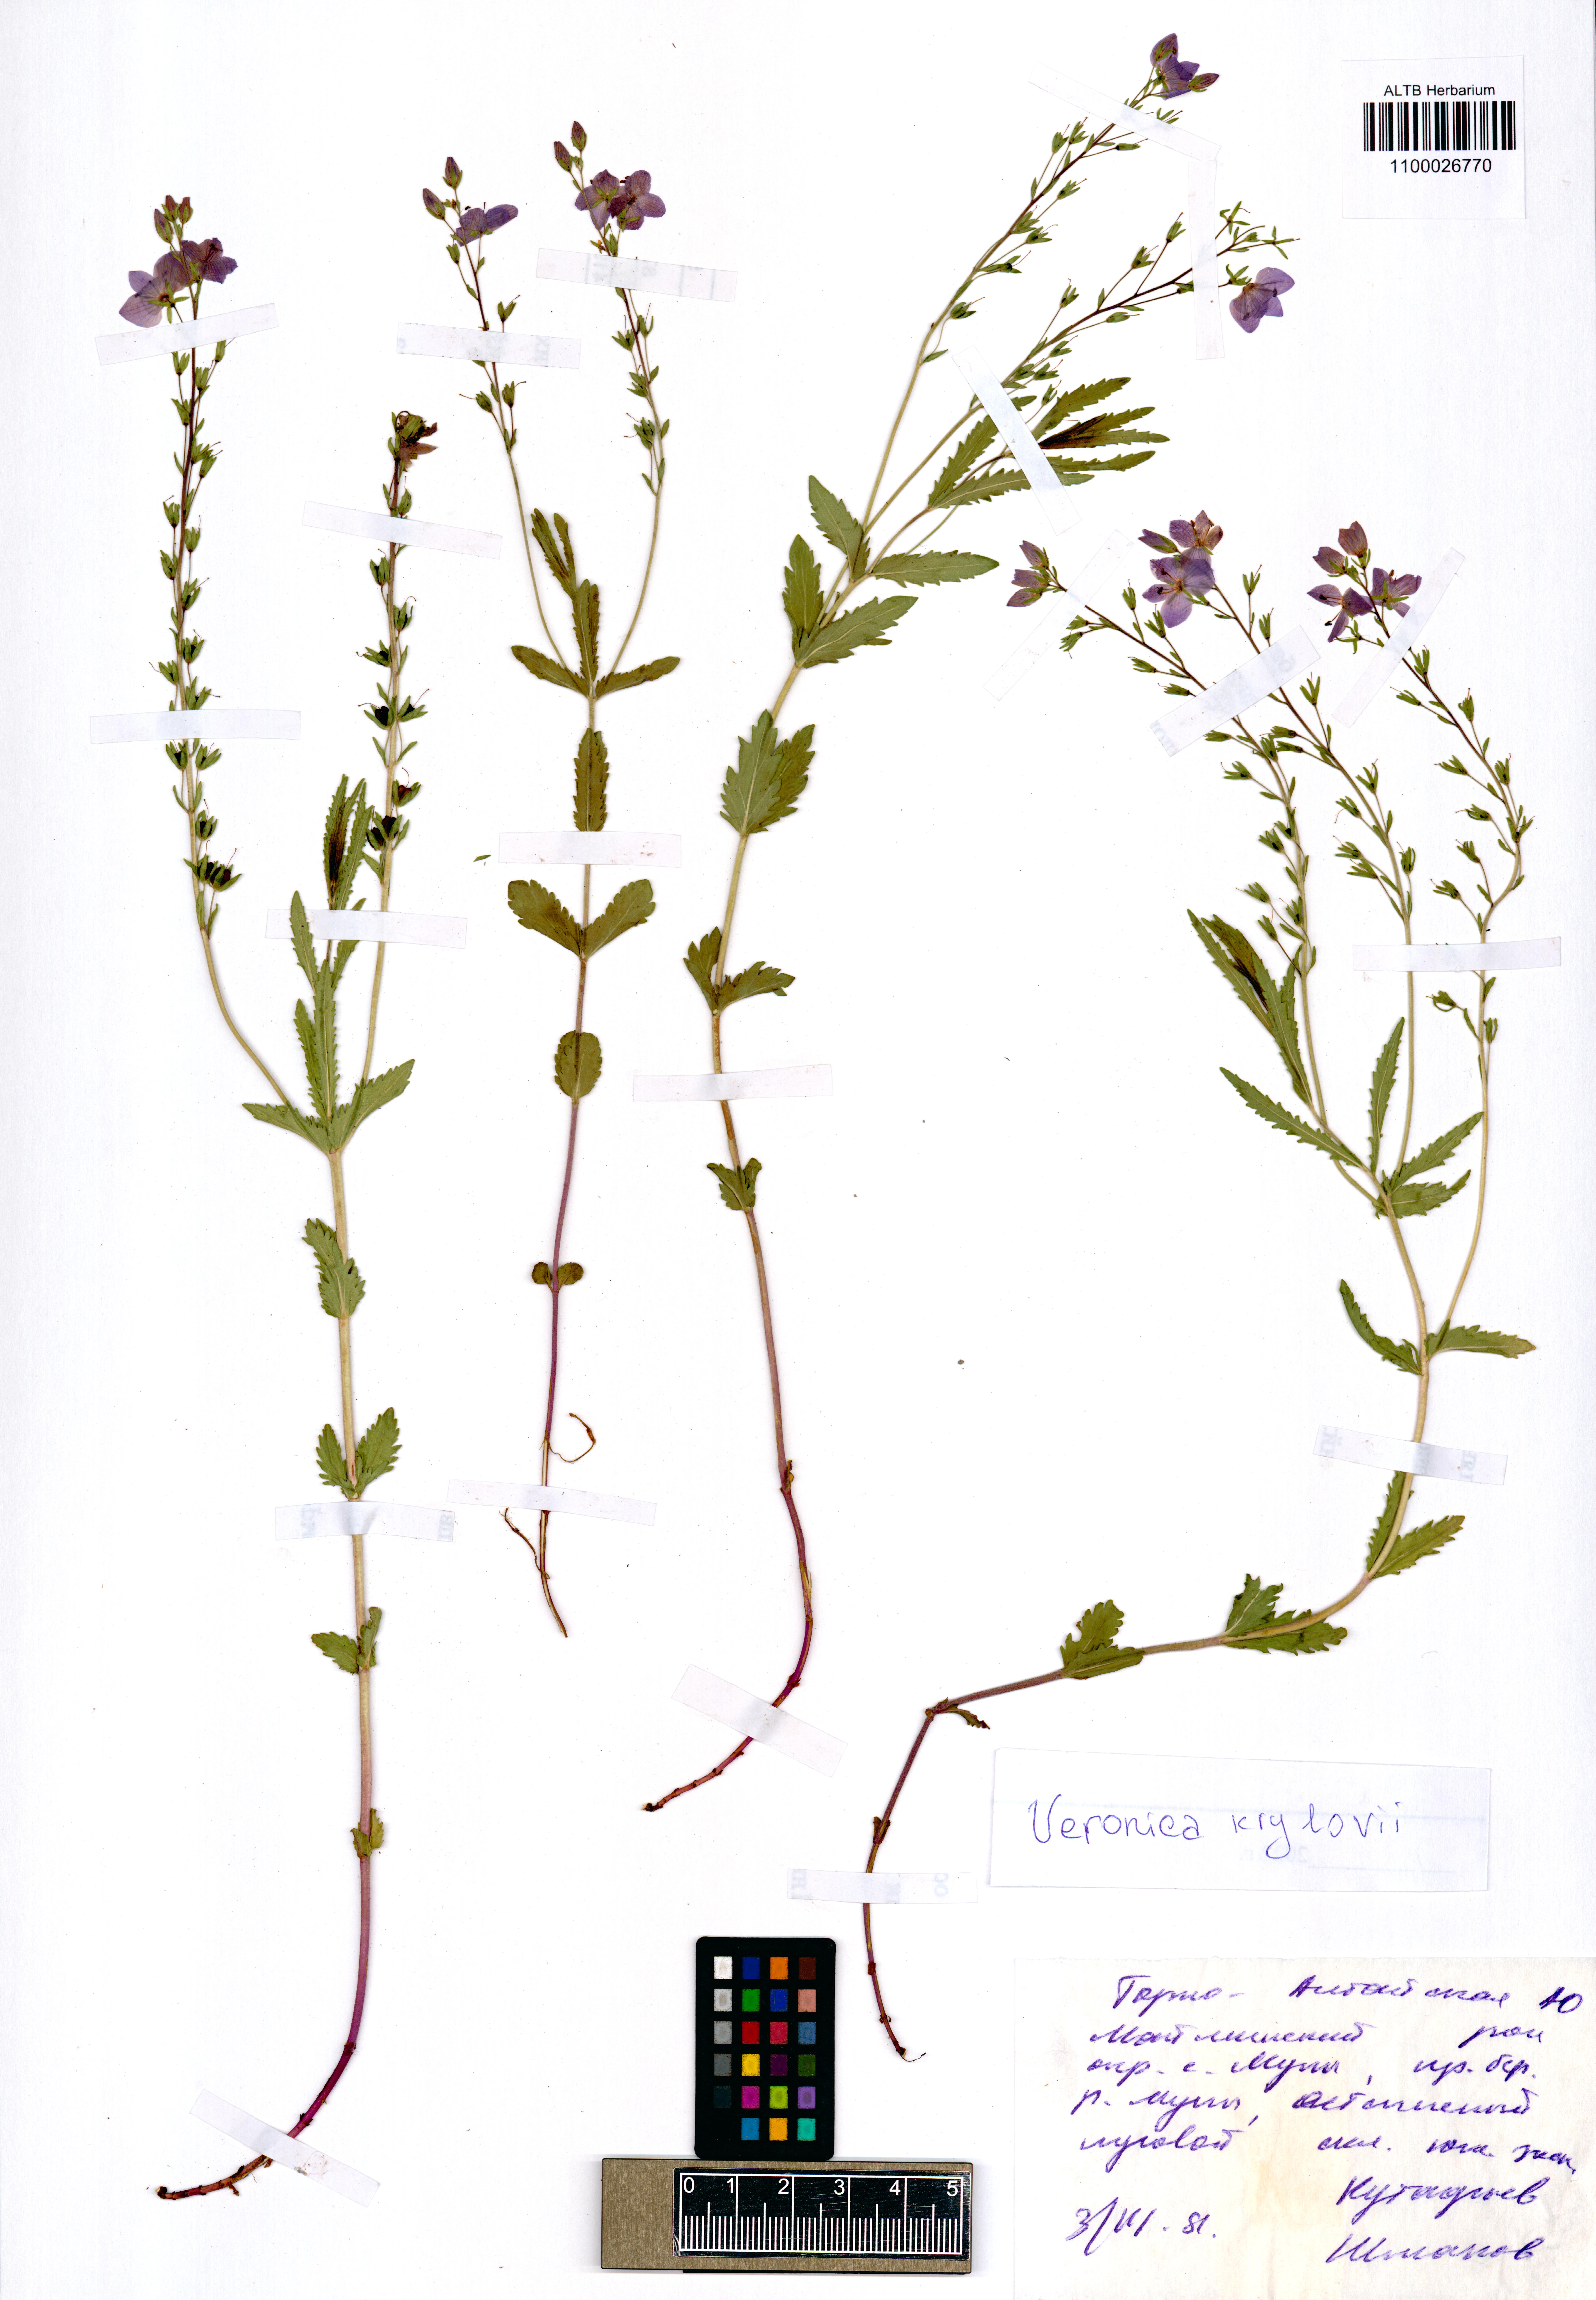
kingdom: Plantae
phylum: Tracheophyta
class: Magnoliopsida
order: Lamiales
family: Plantaginaceae
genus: Veronica
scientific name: Veronica krylovii
